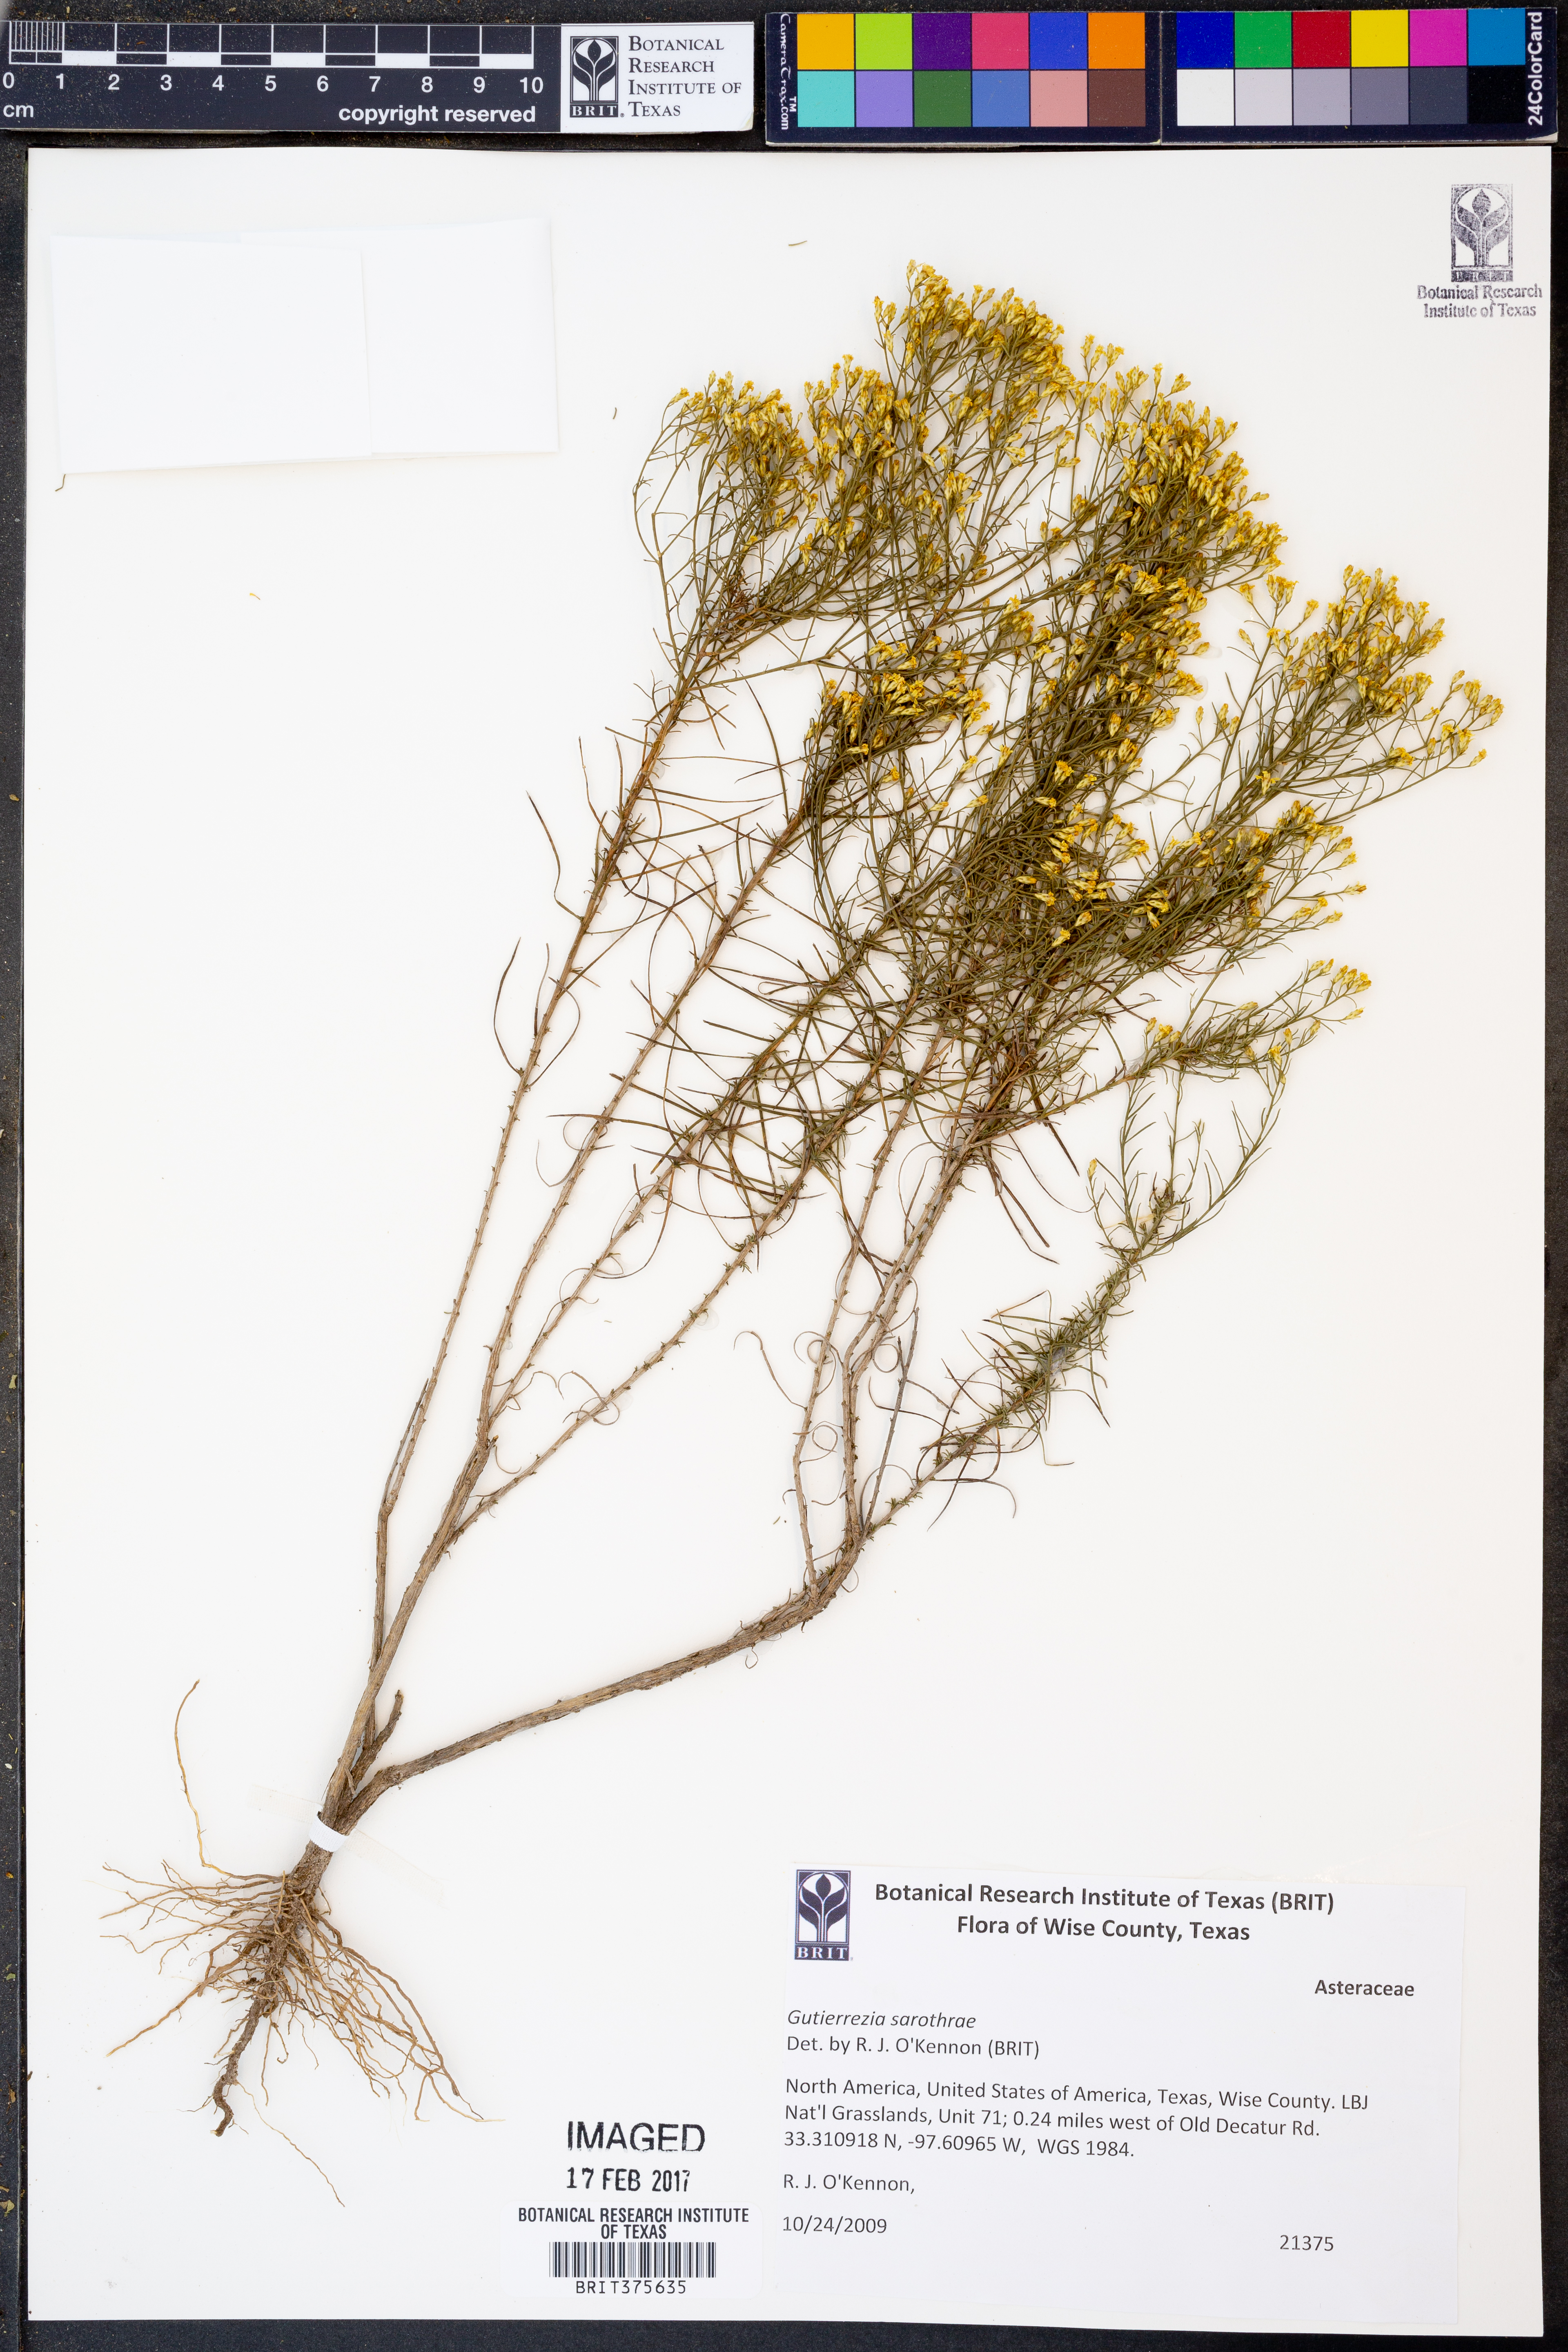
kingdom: Plantae
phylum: Tracheophyta
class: Magnoliopsida
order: Asterales
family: Asteraceae
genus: Gutierrezia
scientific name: Gutierrezia sarothrae
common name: Broom snakeweed
